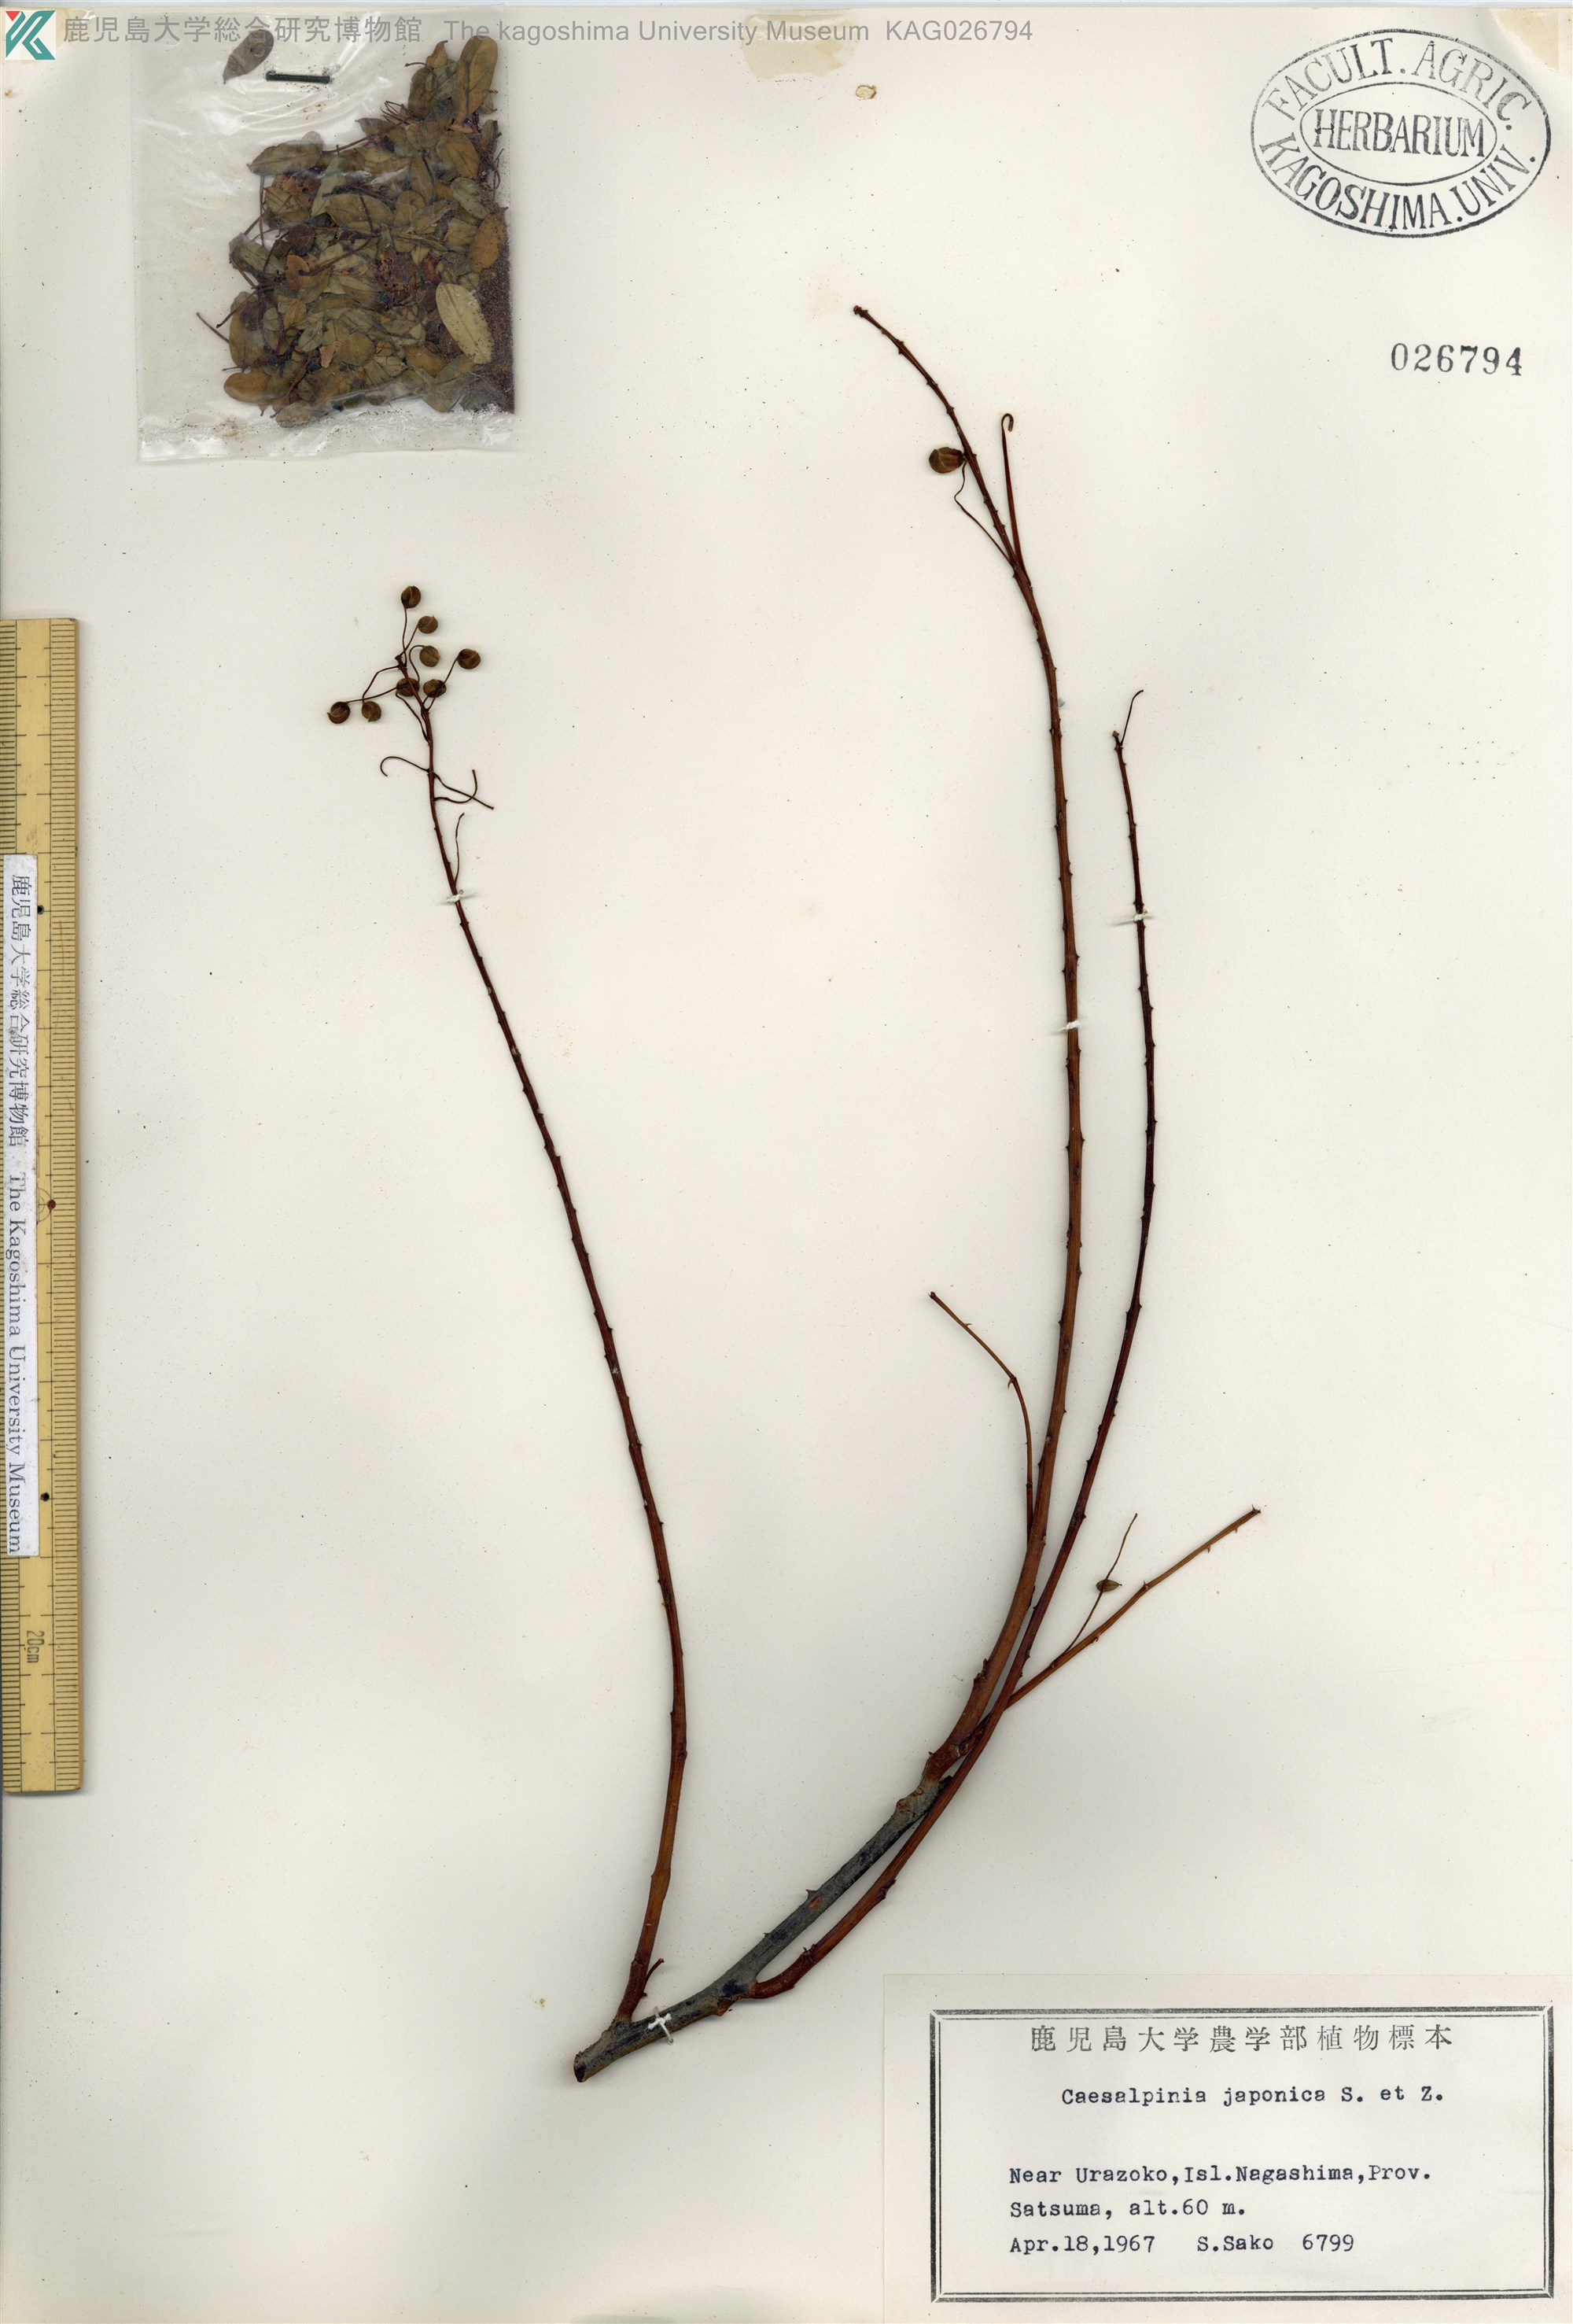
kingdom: Plantae
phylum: Tracheophyta
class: Magnoliopsida
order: Fabales
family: Fabaceae
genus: Biancaea
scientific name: Biancaea decapetala
